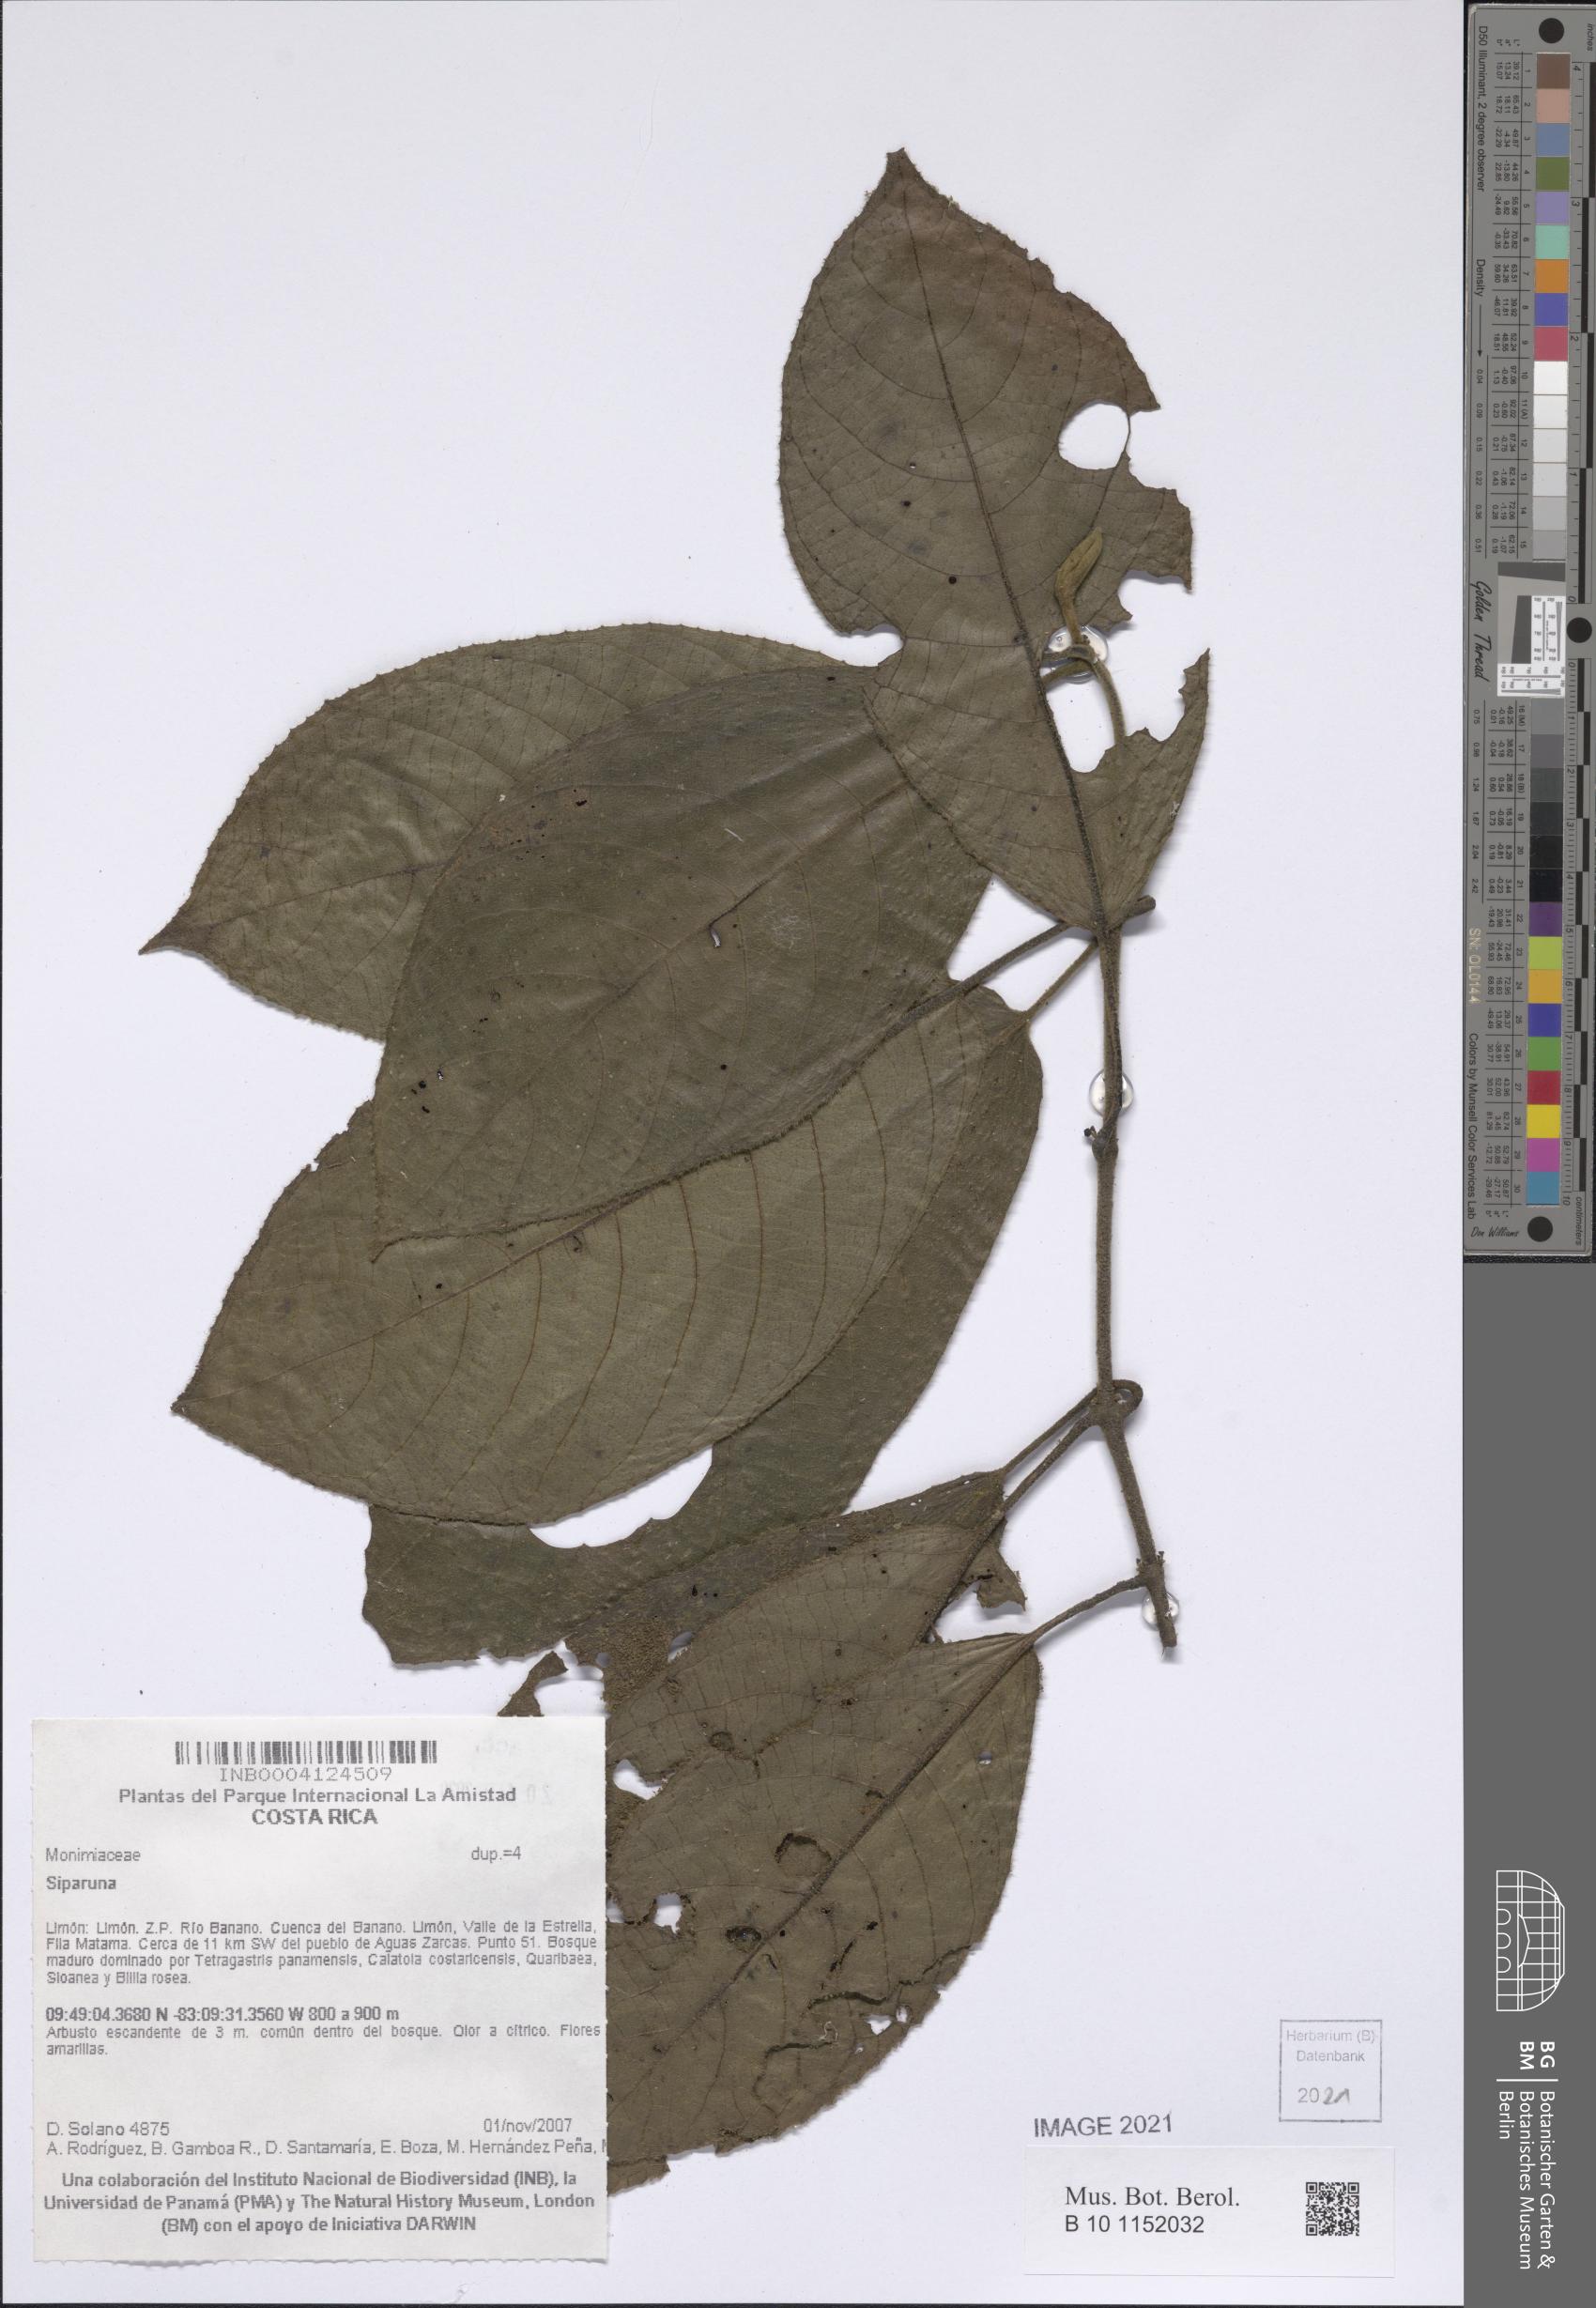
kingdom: Plantae
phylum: Tracheophyta
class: Magnoliopsida
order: Laurales
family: Siparunaceae
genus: Siparuna
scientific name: Siparuna
